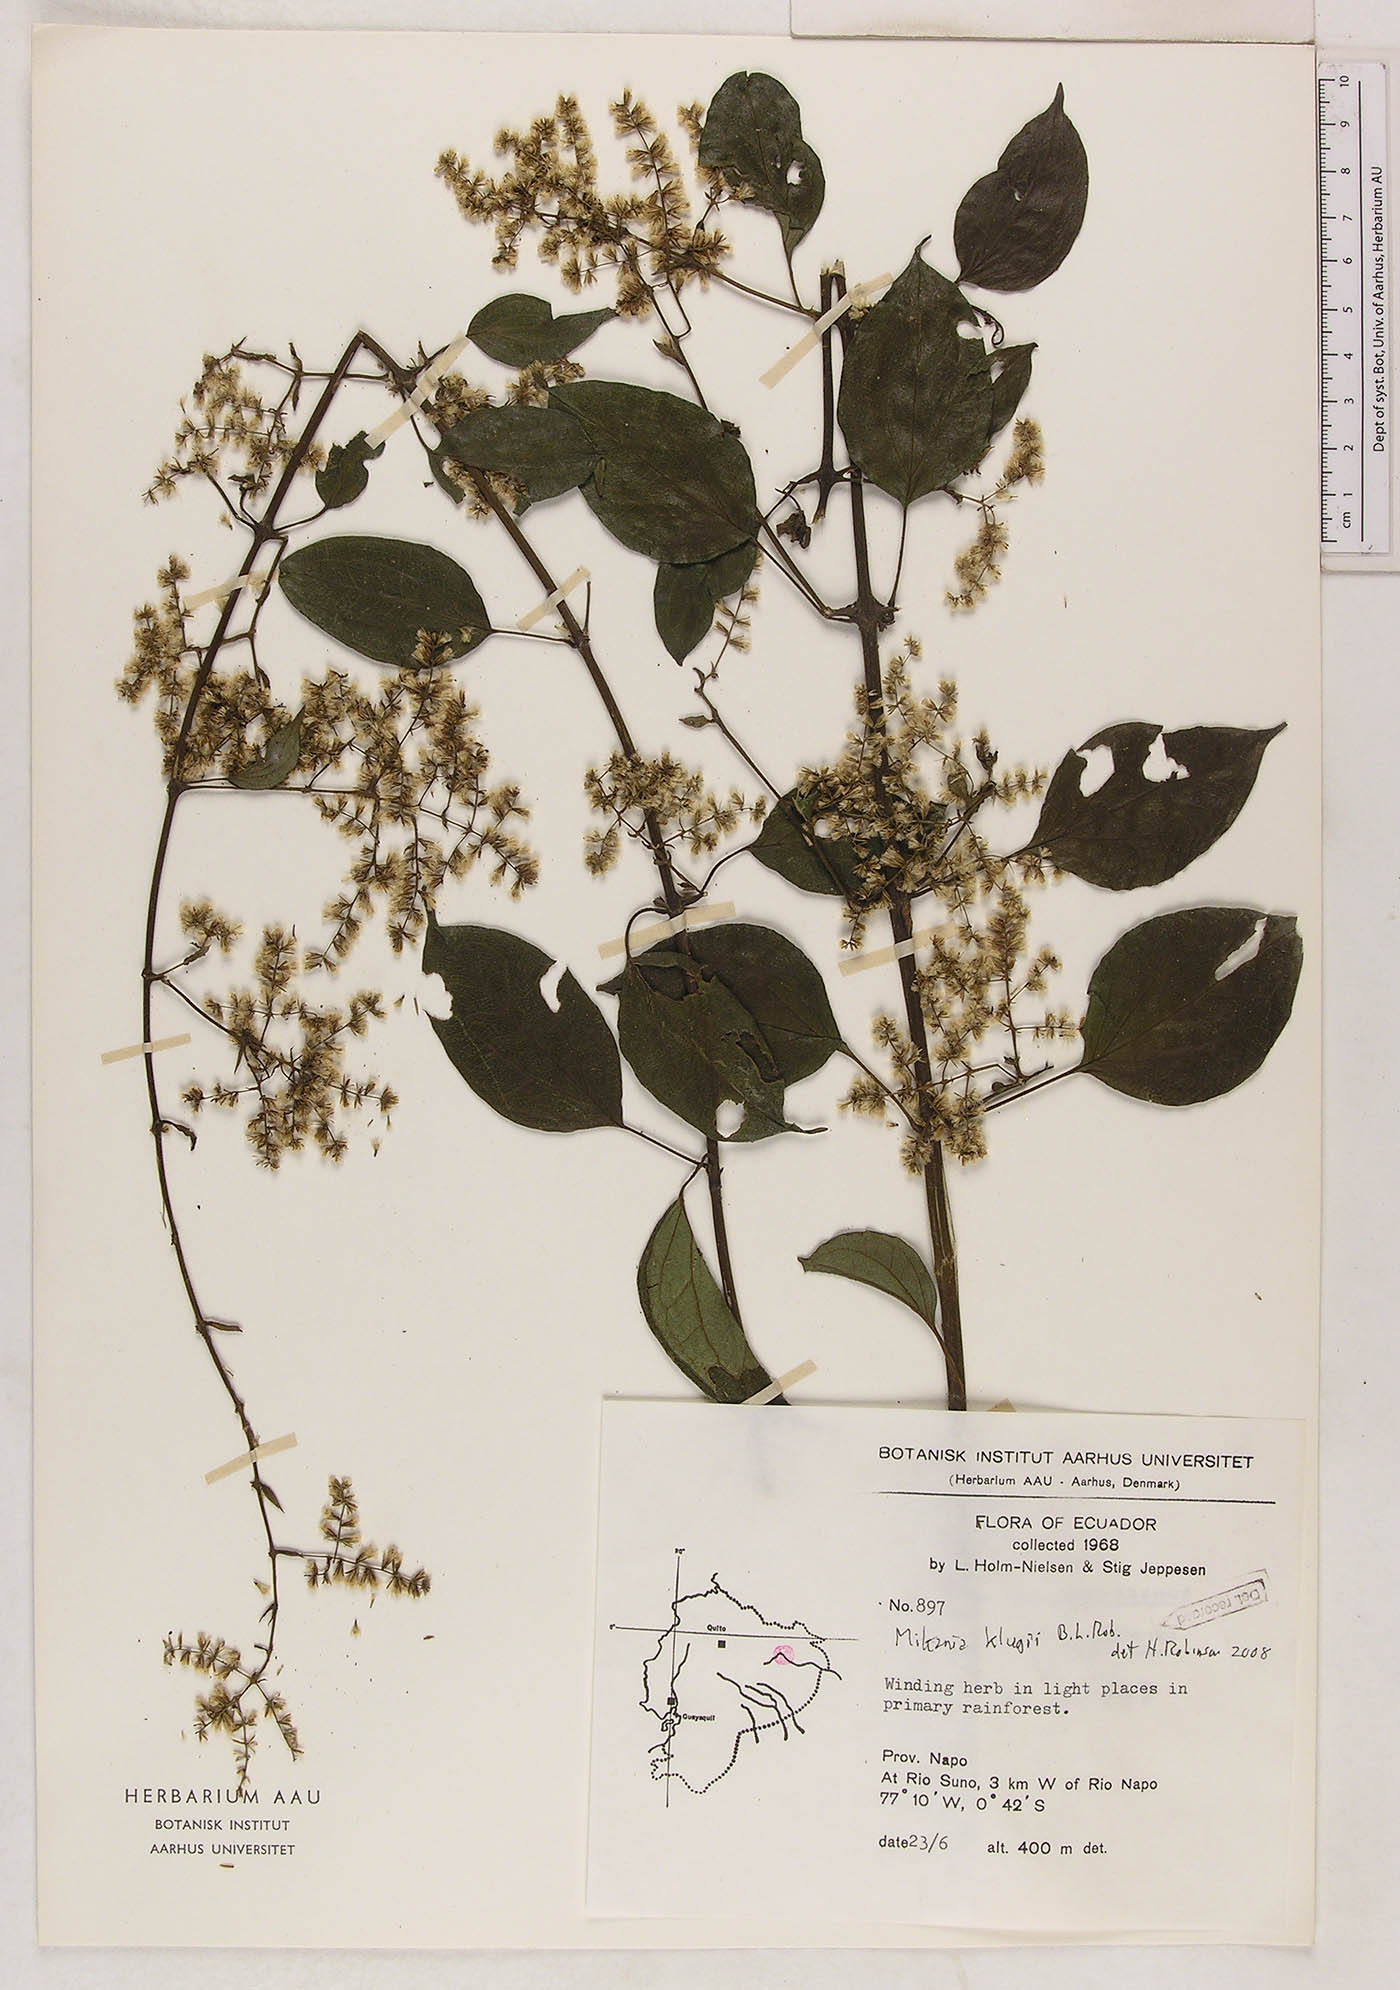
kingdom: Plantae
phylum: Tracheophyta
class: Magnoliopsida
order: Asterales
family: Asteraceae
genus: Mikania
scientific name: Mikania klugii
